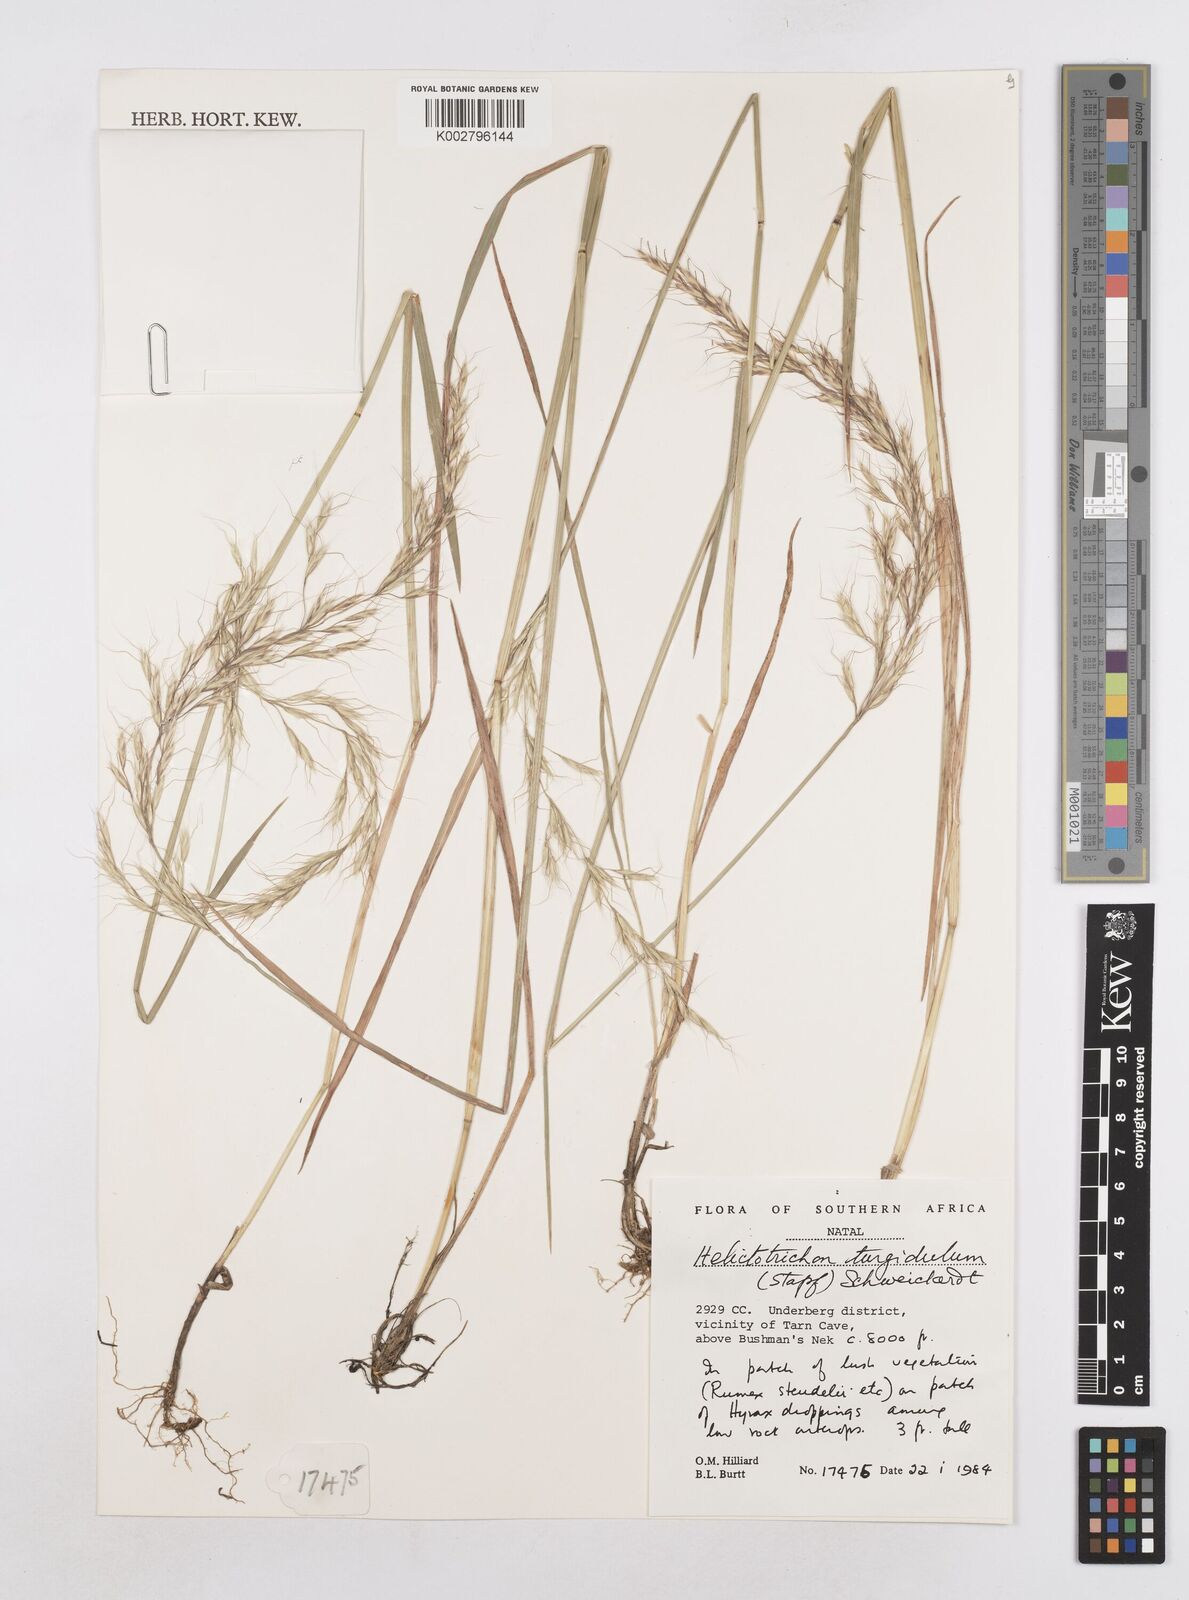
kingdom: Plantae
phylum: Tracheophyta
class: Liliopsida
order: Poales
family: Poaceae
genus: Trisetopsis
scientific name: Trisetopsis imberbis
